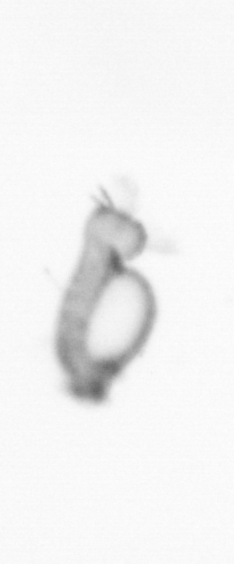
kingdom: Animalia
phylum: Annelida
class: Polychaeta
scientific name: Polychaeta
